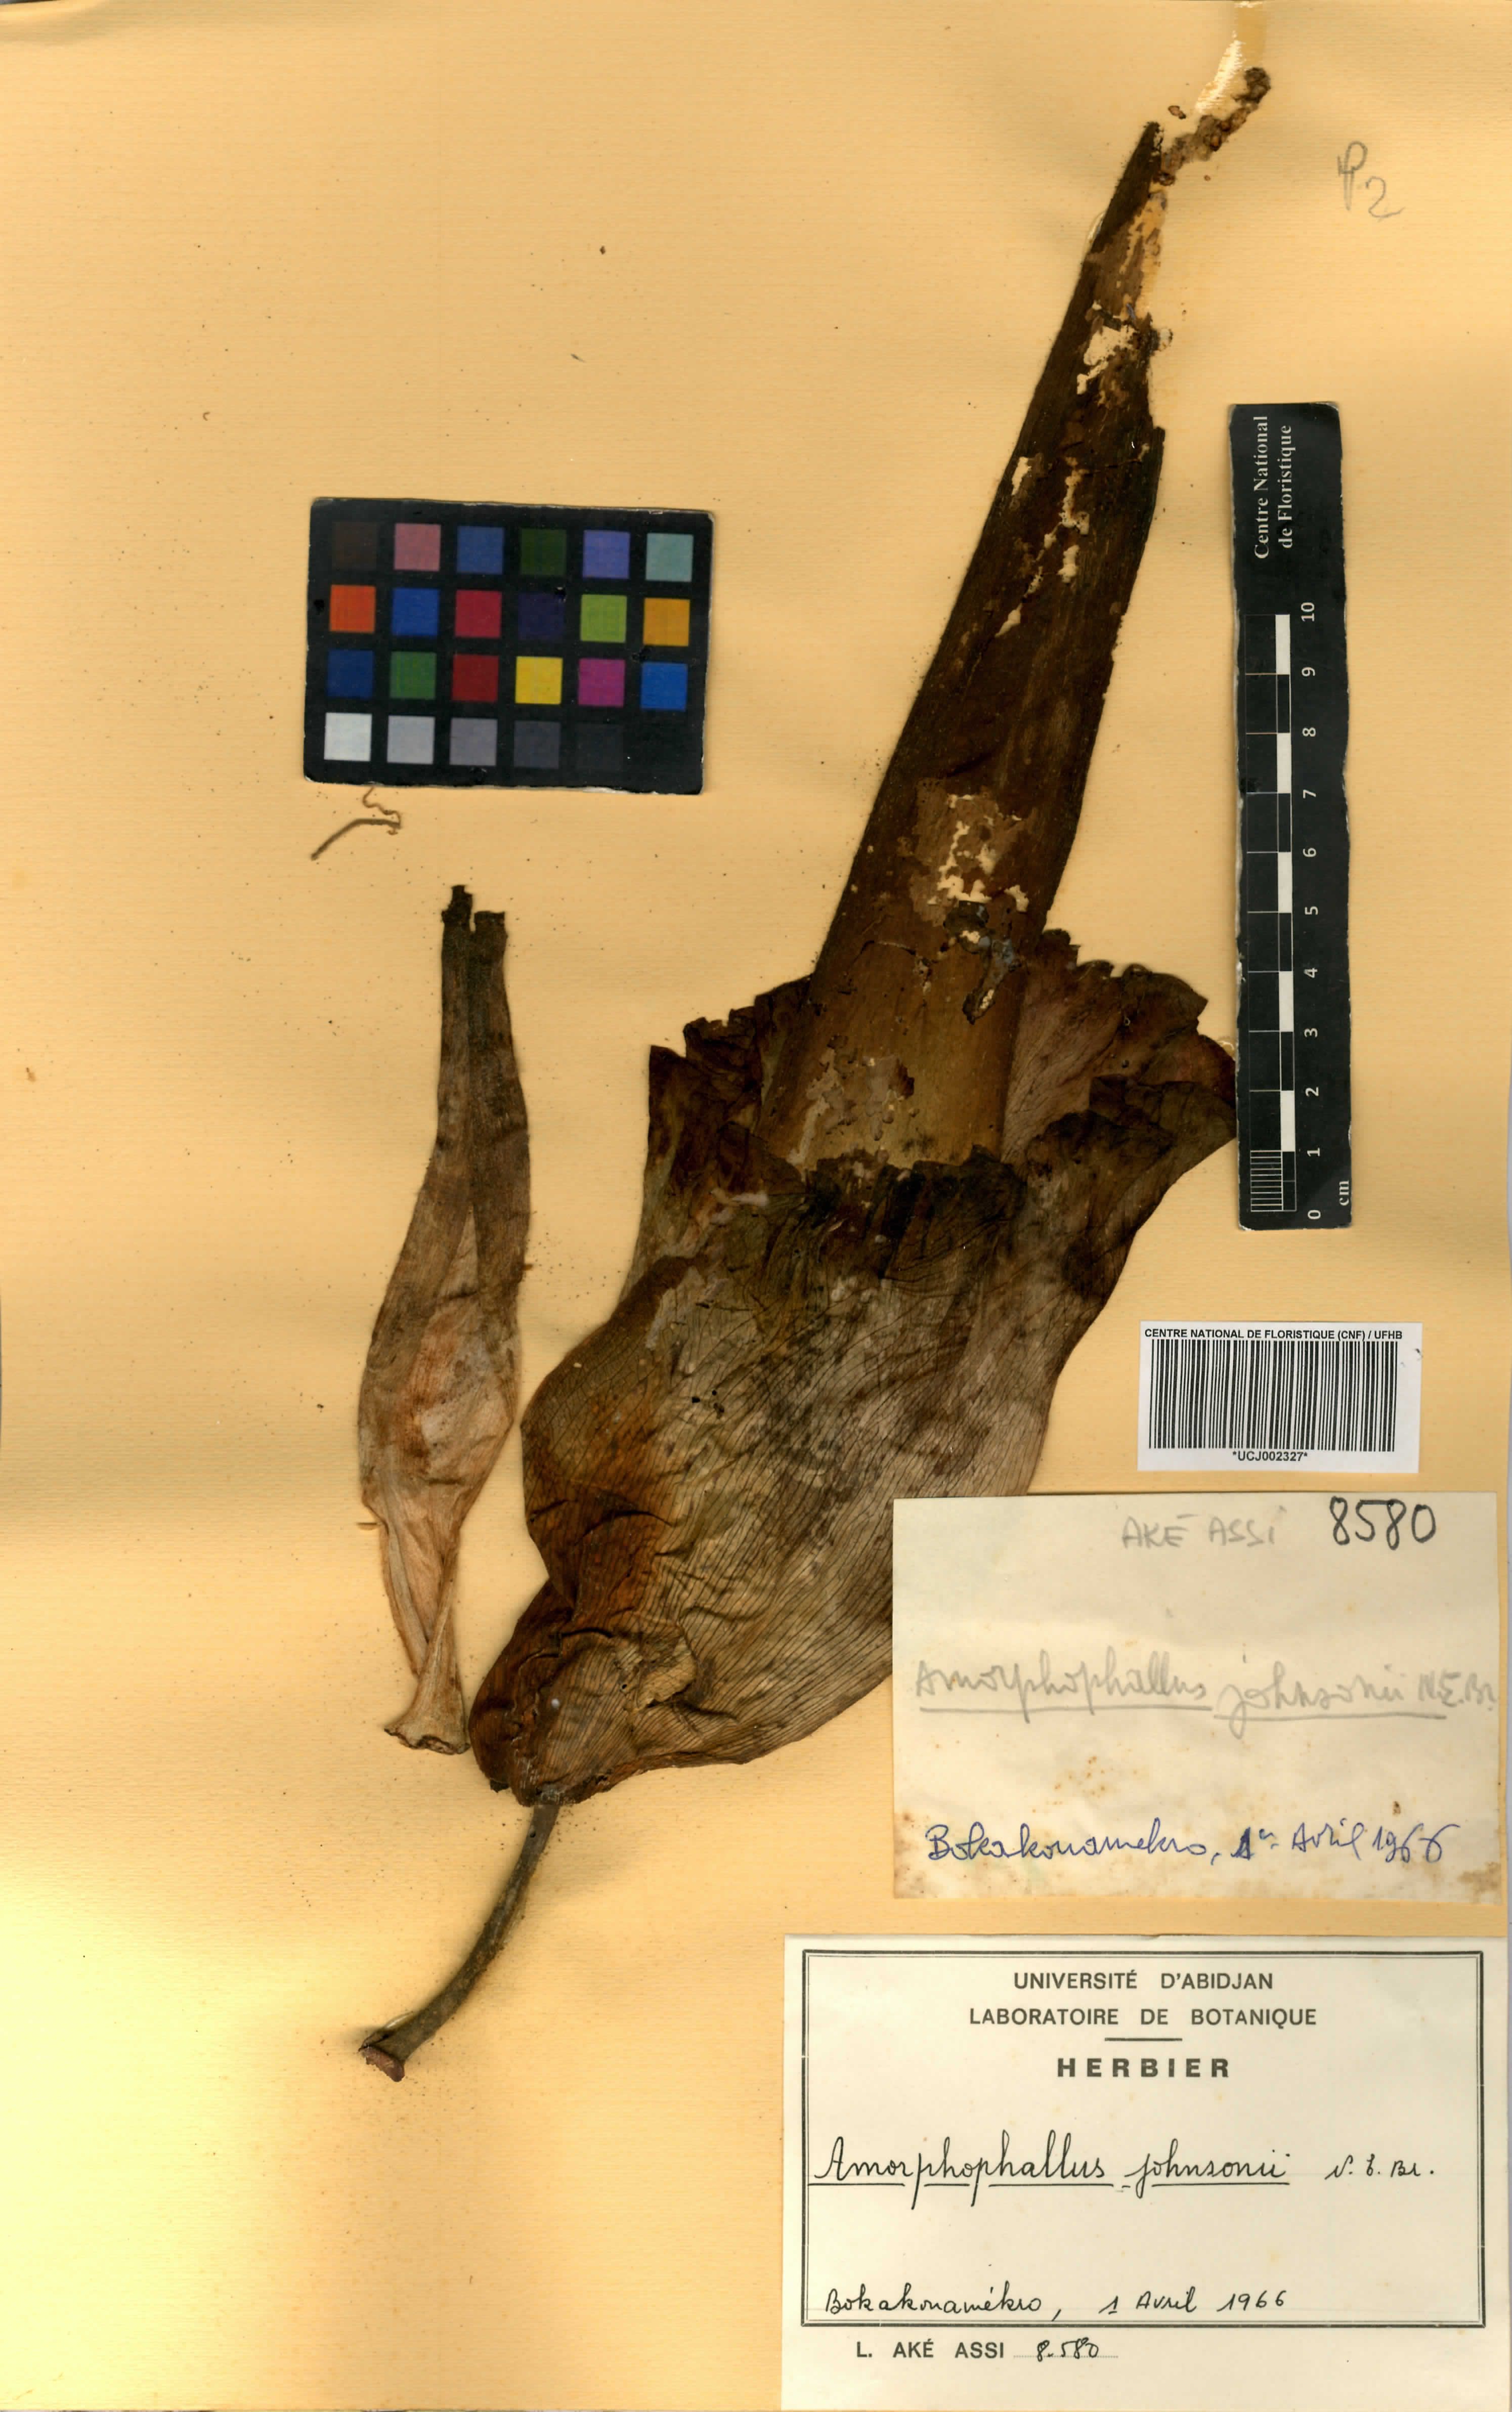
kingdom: Plantae
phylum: Tracheophyta
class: Liliopsida
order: Alismatales
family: Araceae
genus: Amorphophallus
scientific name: Amorphophallus johnsonii
